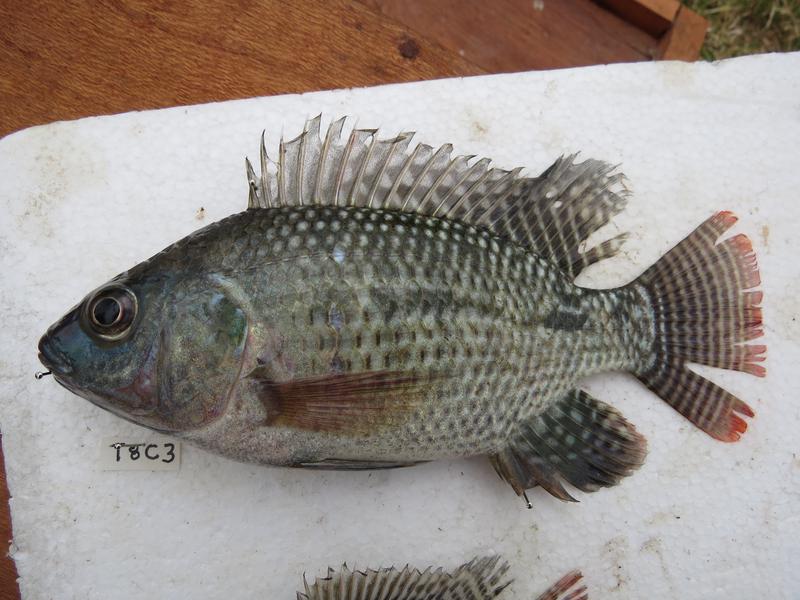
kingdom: Animalia
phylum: Chordata
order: Perciformes
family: Cichlidae
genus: Oreochromis
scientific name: Oreochromis niloticus
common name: Nile tilapia
